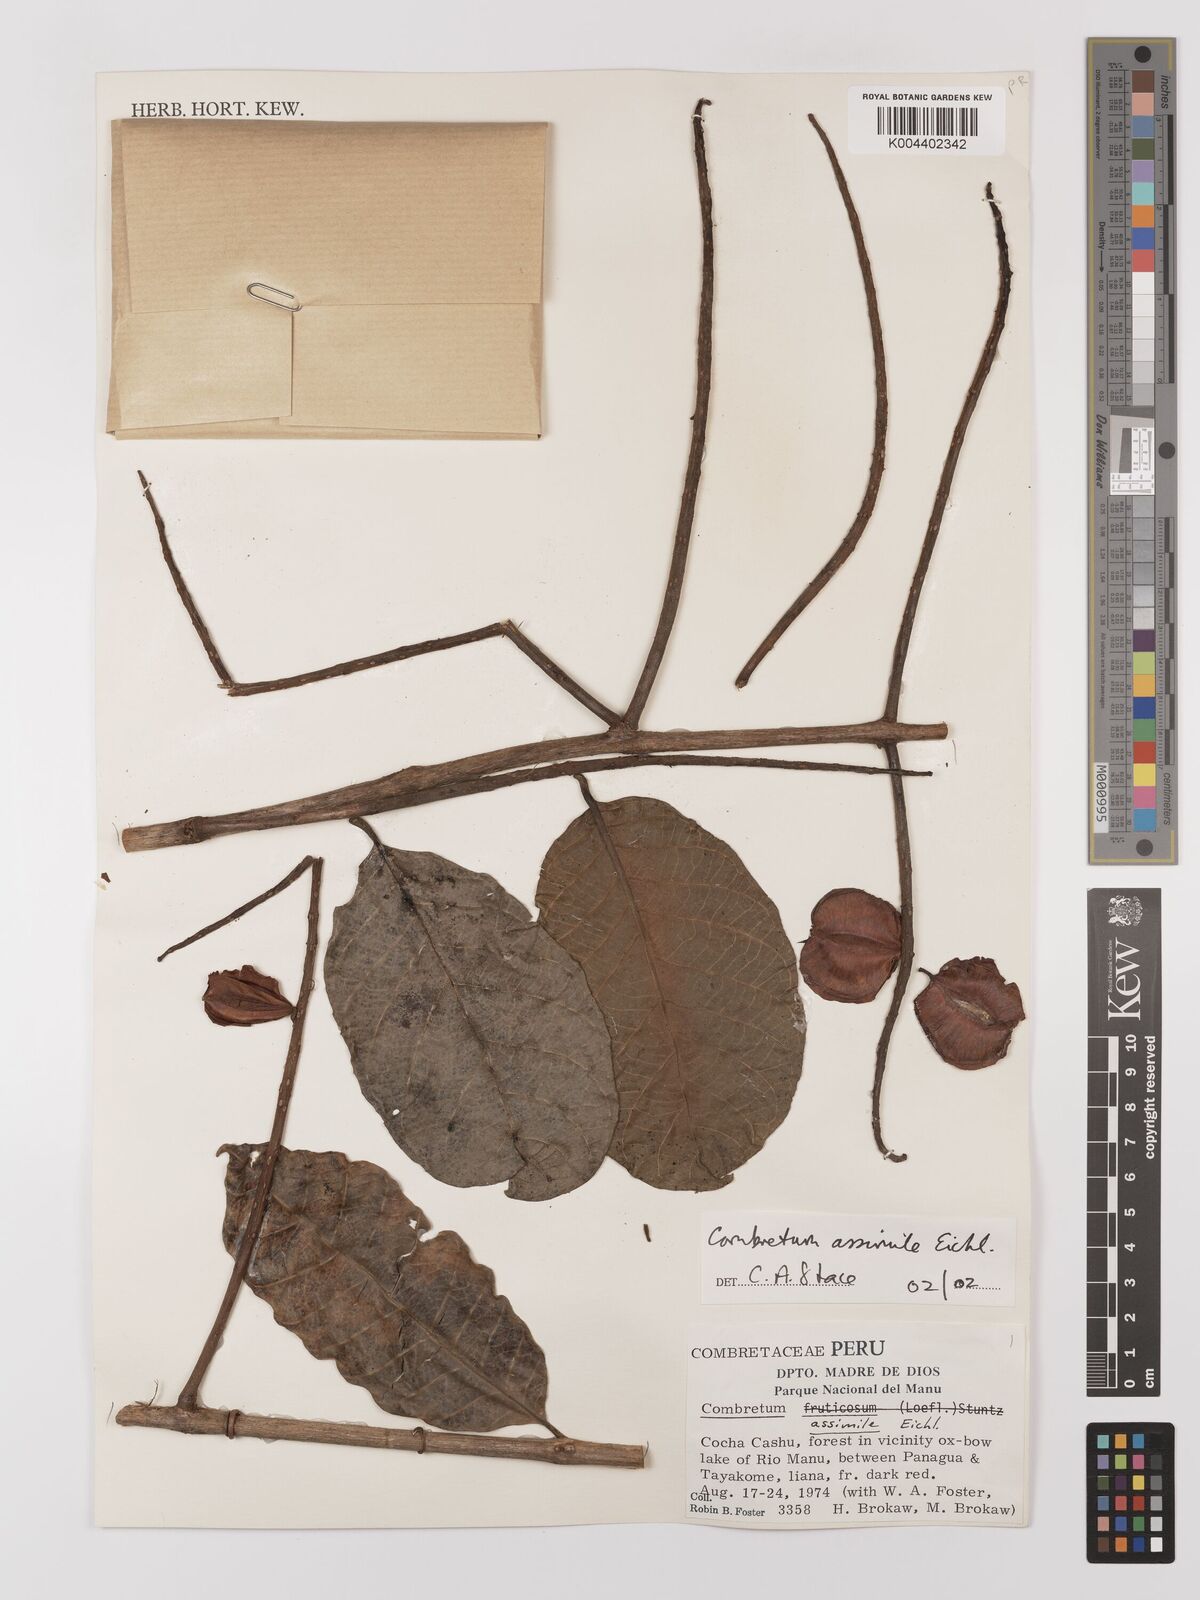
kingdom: Plantae
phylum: Tracheophyta
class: Magnoliopsida
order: Myrtales
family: Combretaceae
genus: Combretum
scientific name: Combretum assimile
